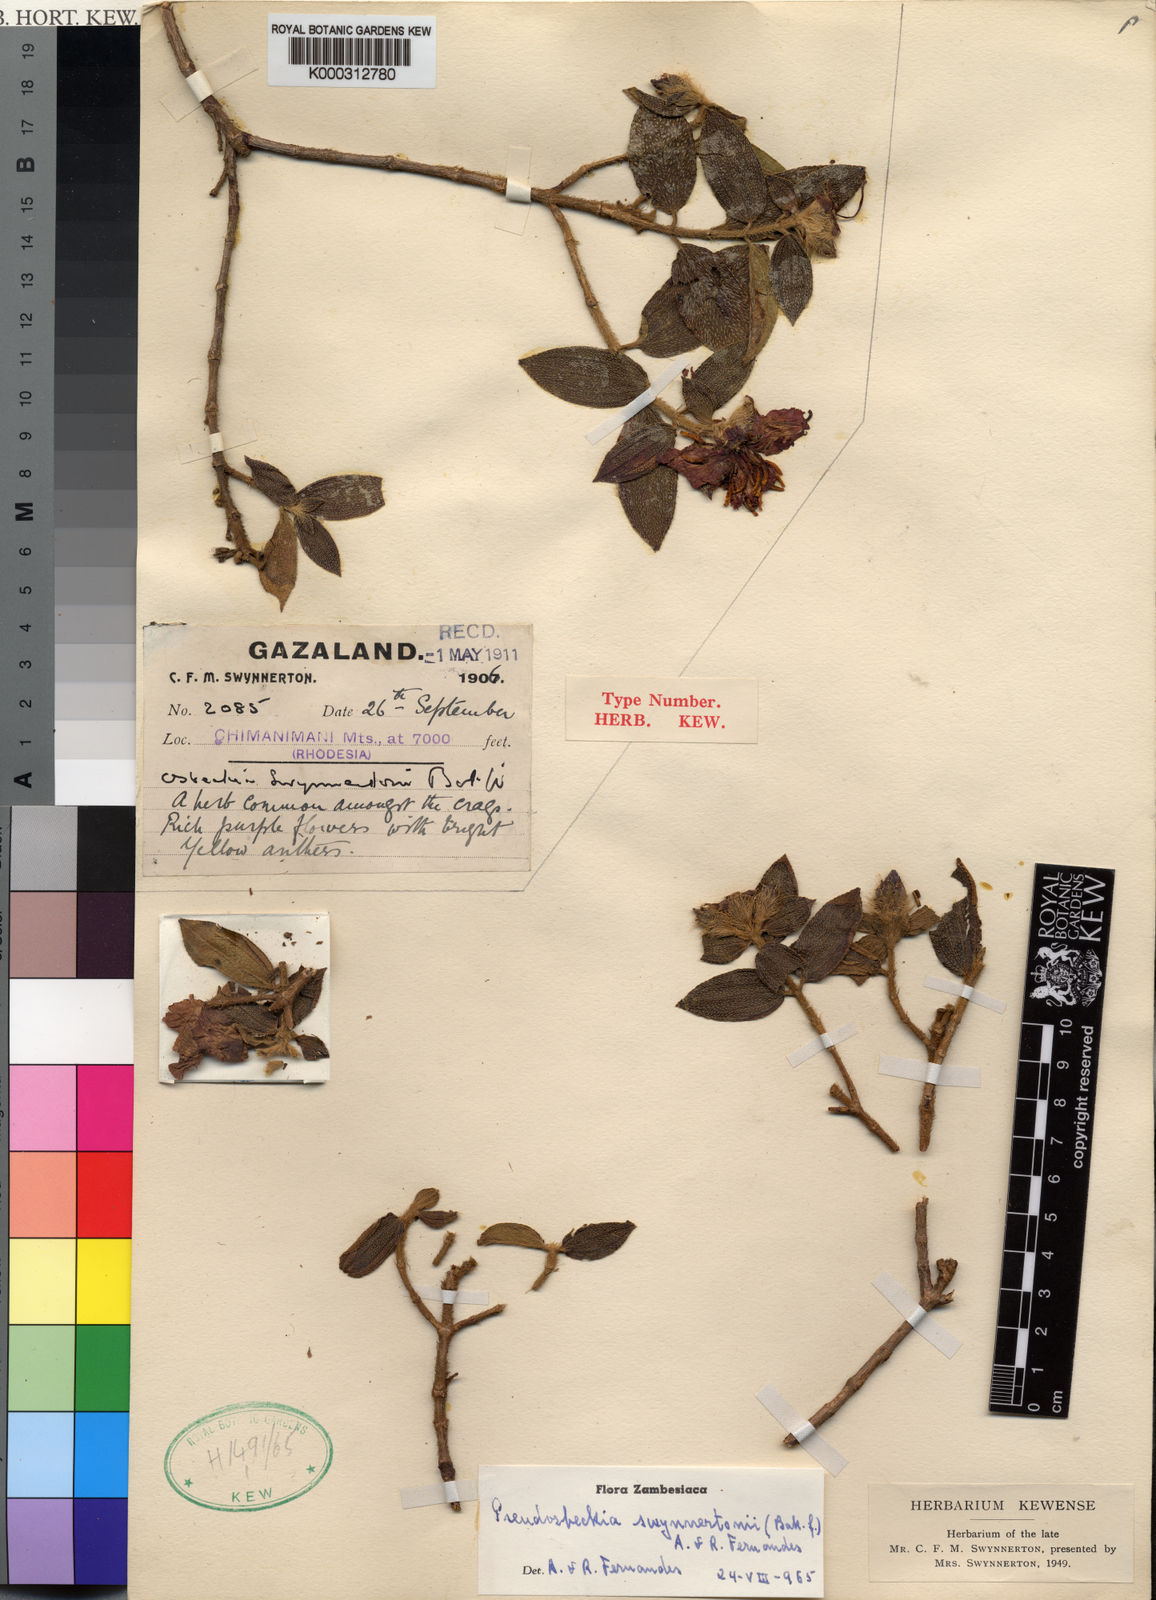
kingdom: Plantae
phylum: Tracheophyta
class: Magnoliopsida
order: Myrtales
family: Melastomataceae
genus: Pseudosbeckia
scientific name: Pseudosbeckia swynnertonii
